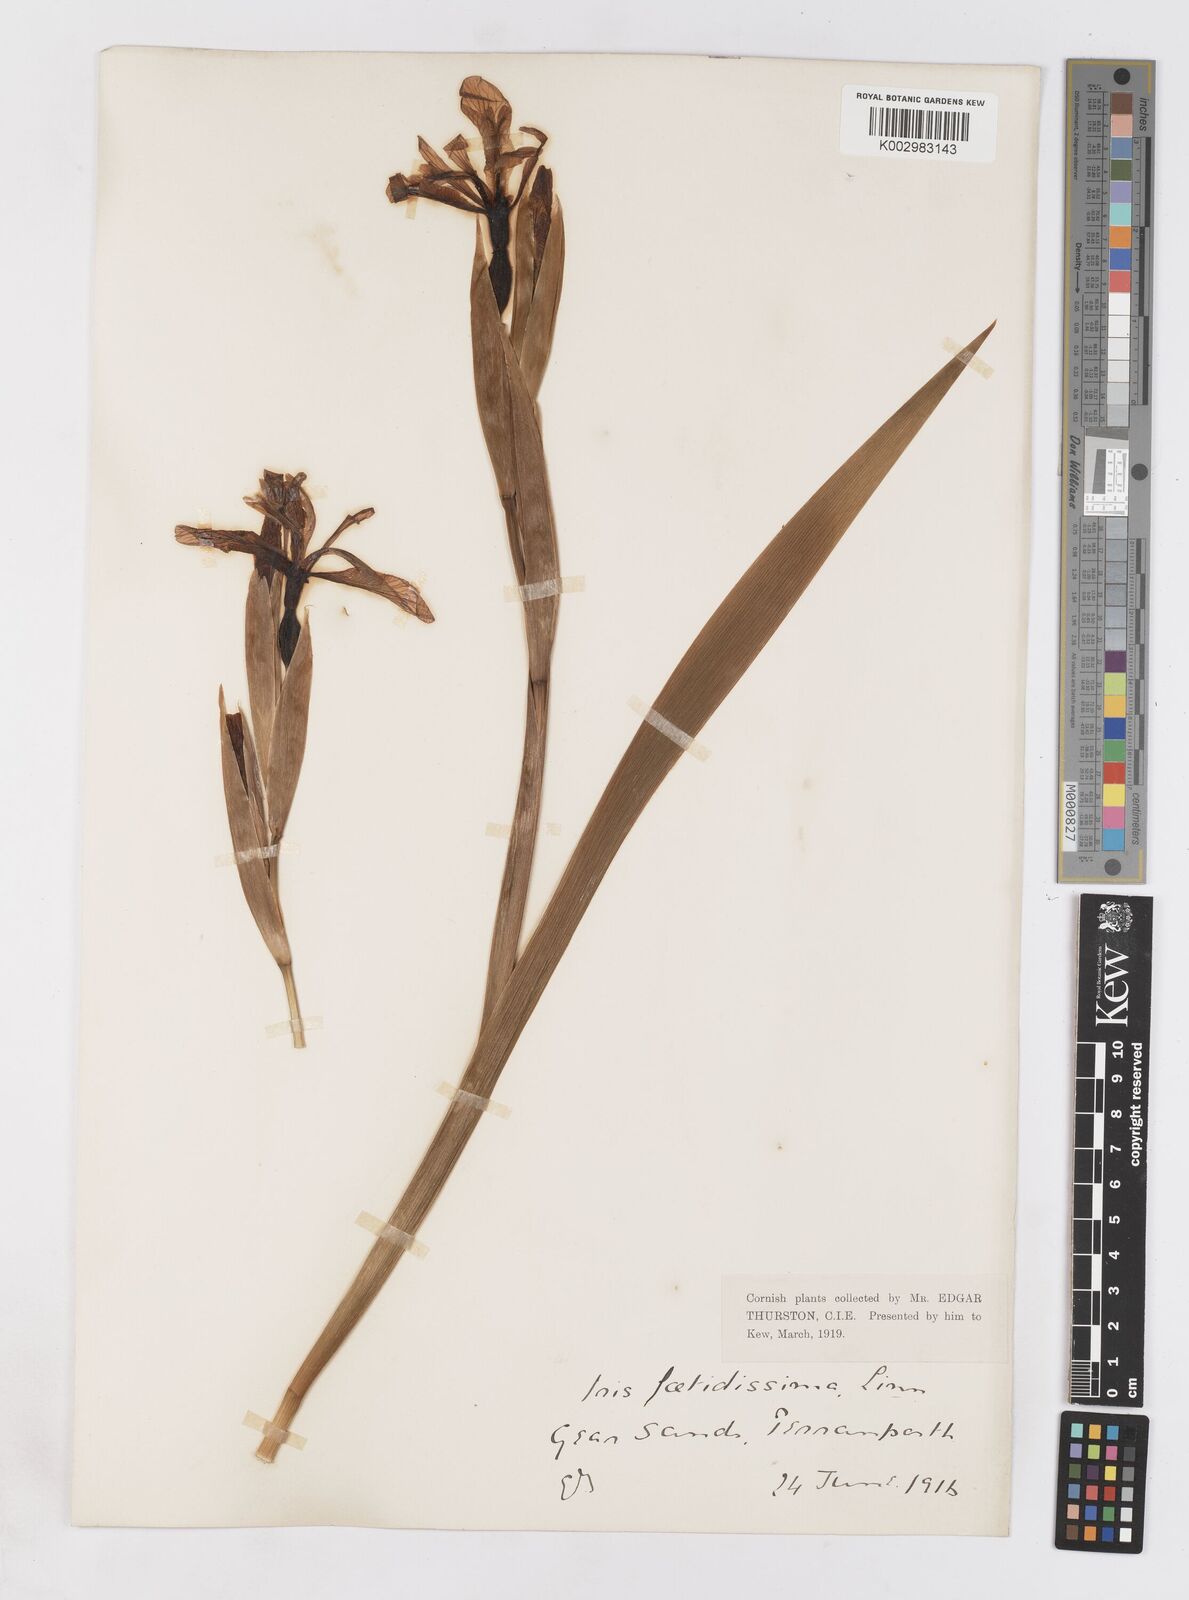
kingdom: Plantae
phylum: Tracheophyta
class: Liliopsida
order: Asparagales
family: Iridaceae
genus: Iris
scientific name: Iris foetidissima
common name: Stinking iris
